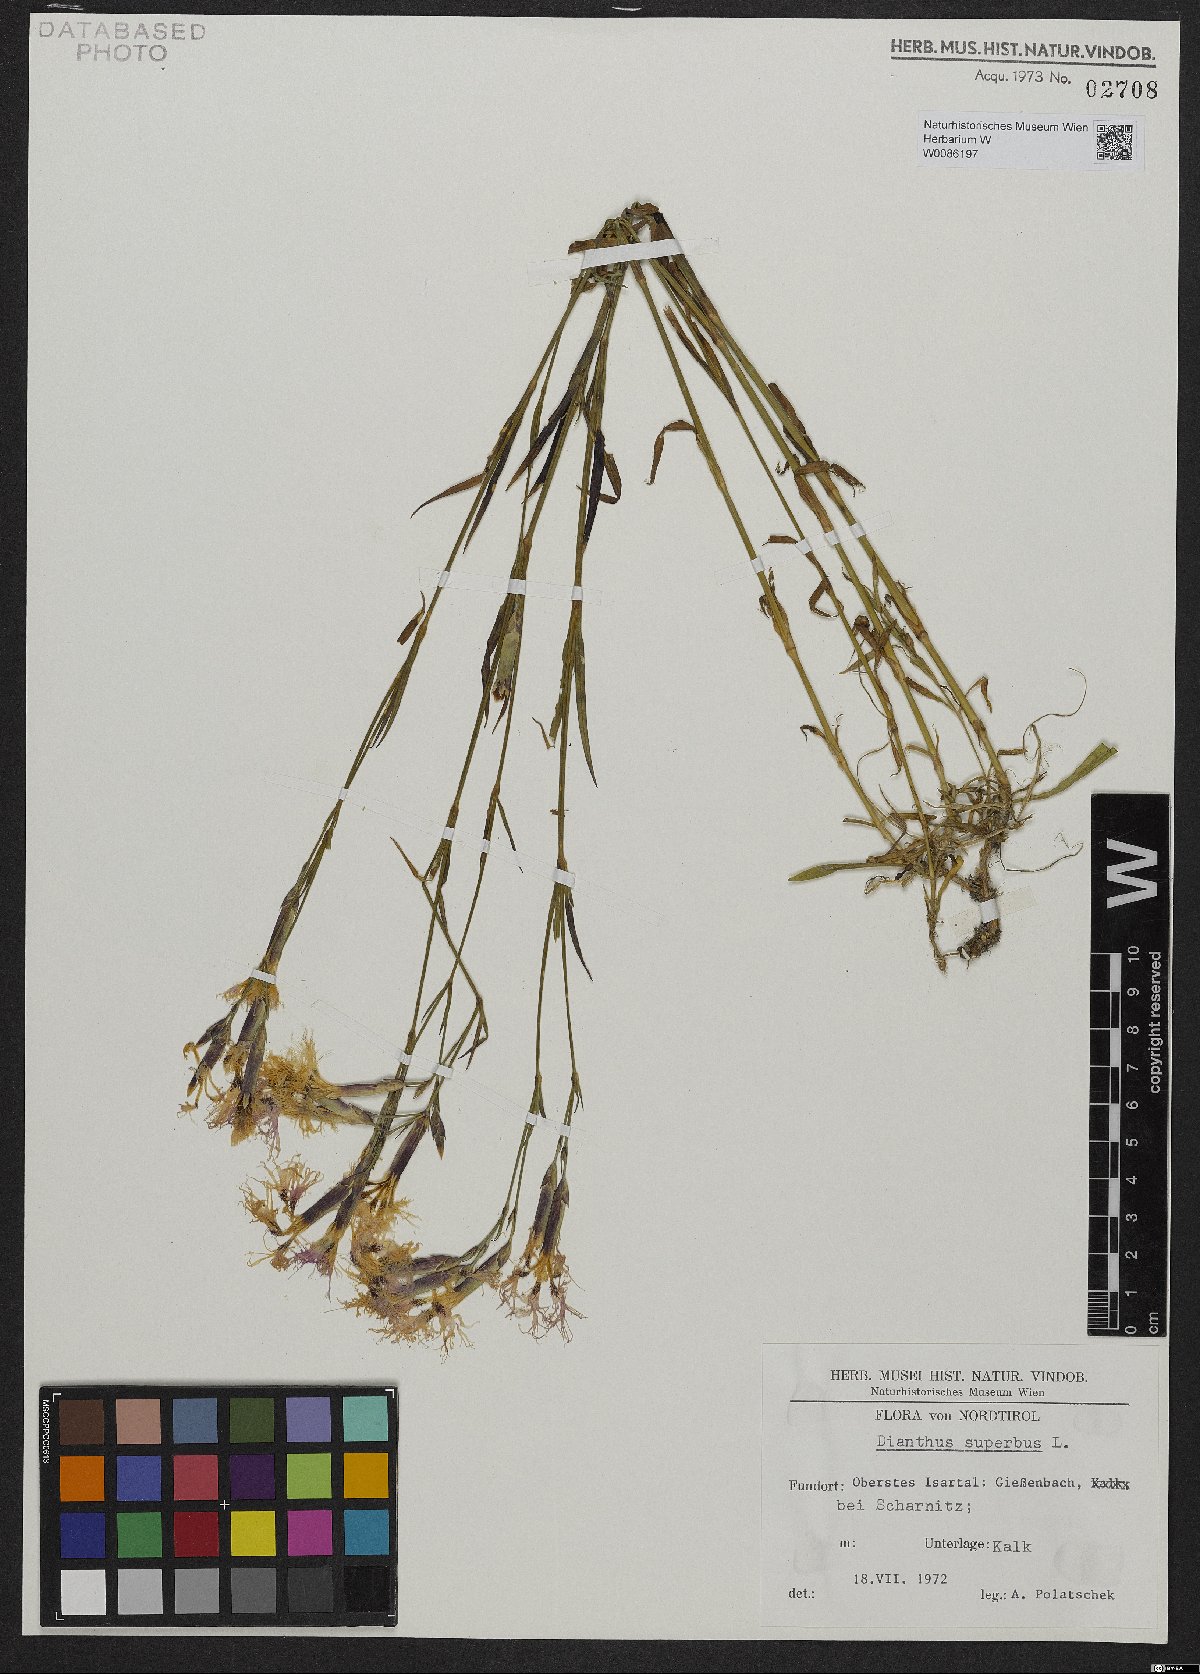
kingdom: Plantae
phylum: Tracheophyta
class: Magnoliopsida
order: Caryophyllales
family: Caryophyllaceae
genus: Dianthus
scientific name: Dianthus superbus
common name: Fringed pink
